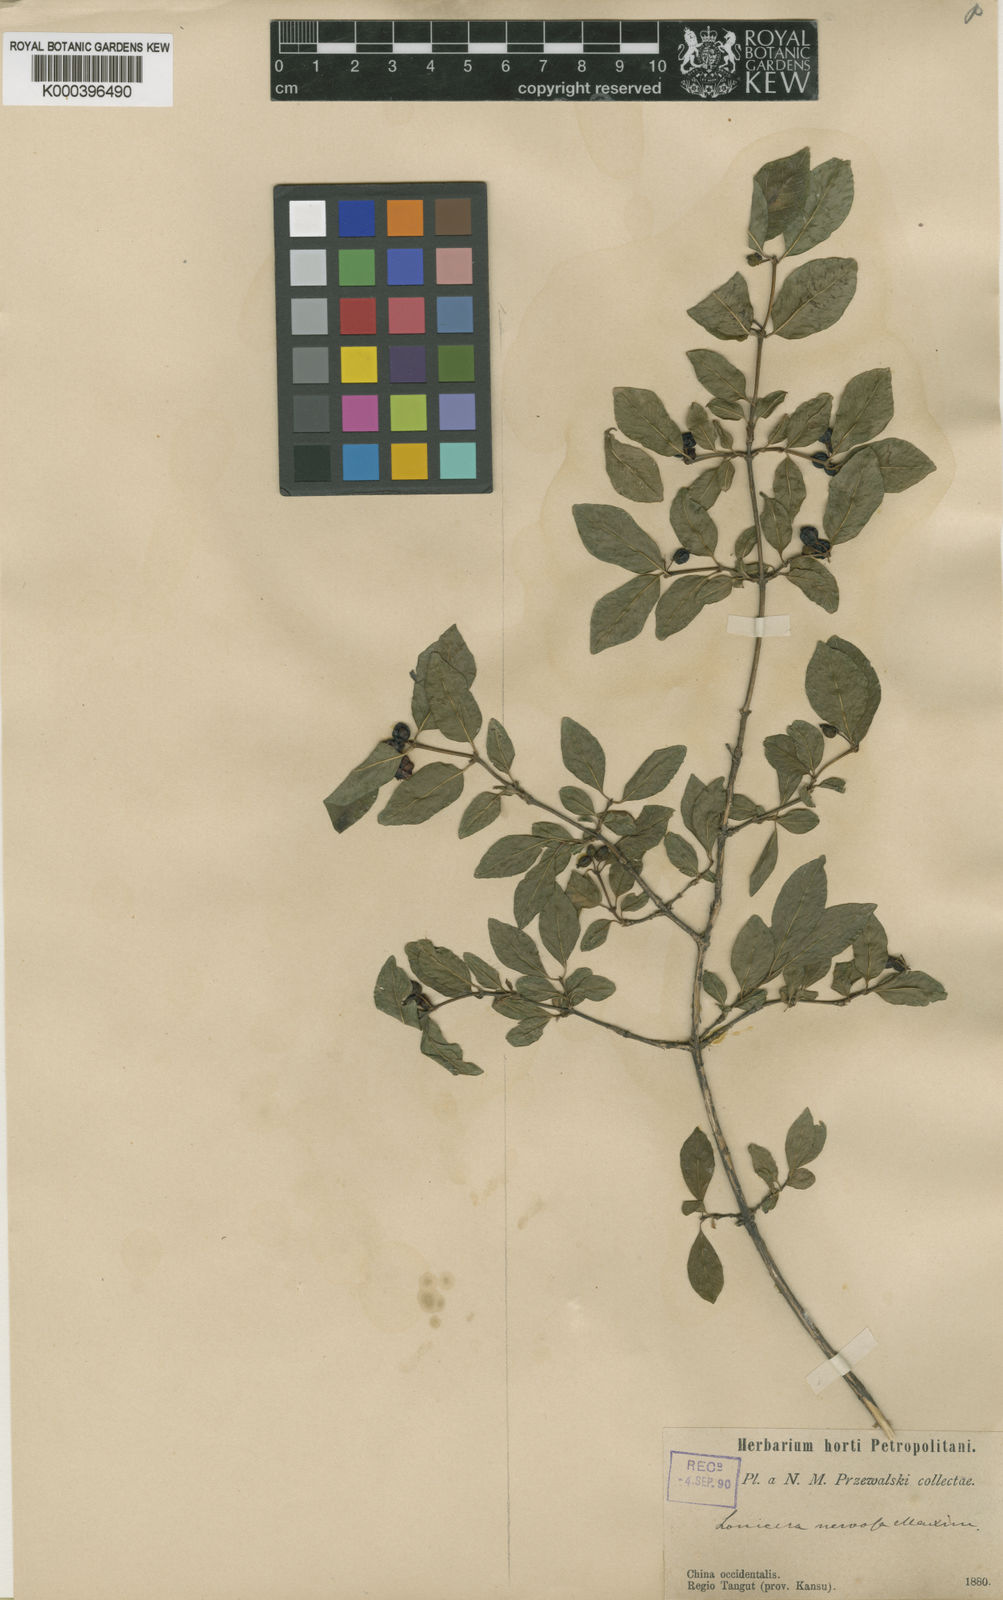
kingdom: Plantae
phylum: Tracheophyta
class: Magnoliopsida
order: Dipsacales
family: Caprifoliaceae
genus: Lonicera
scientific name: Lonicera nervosa
